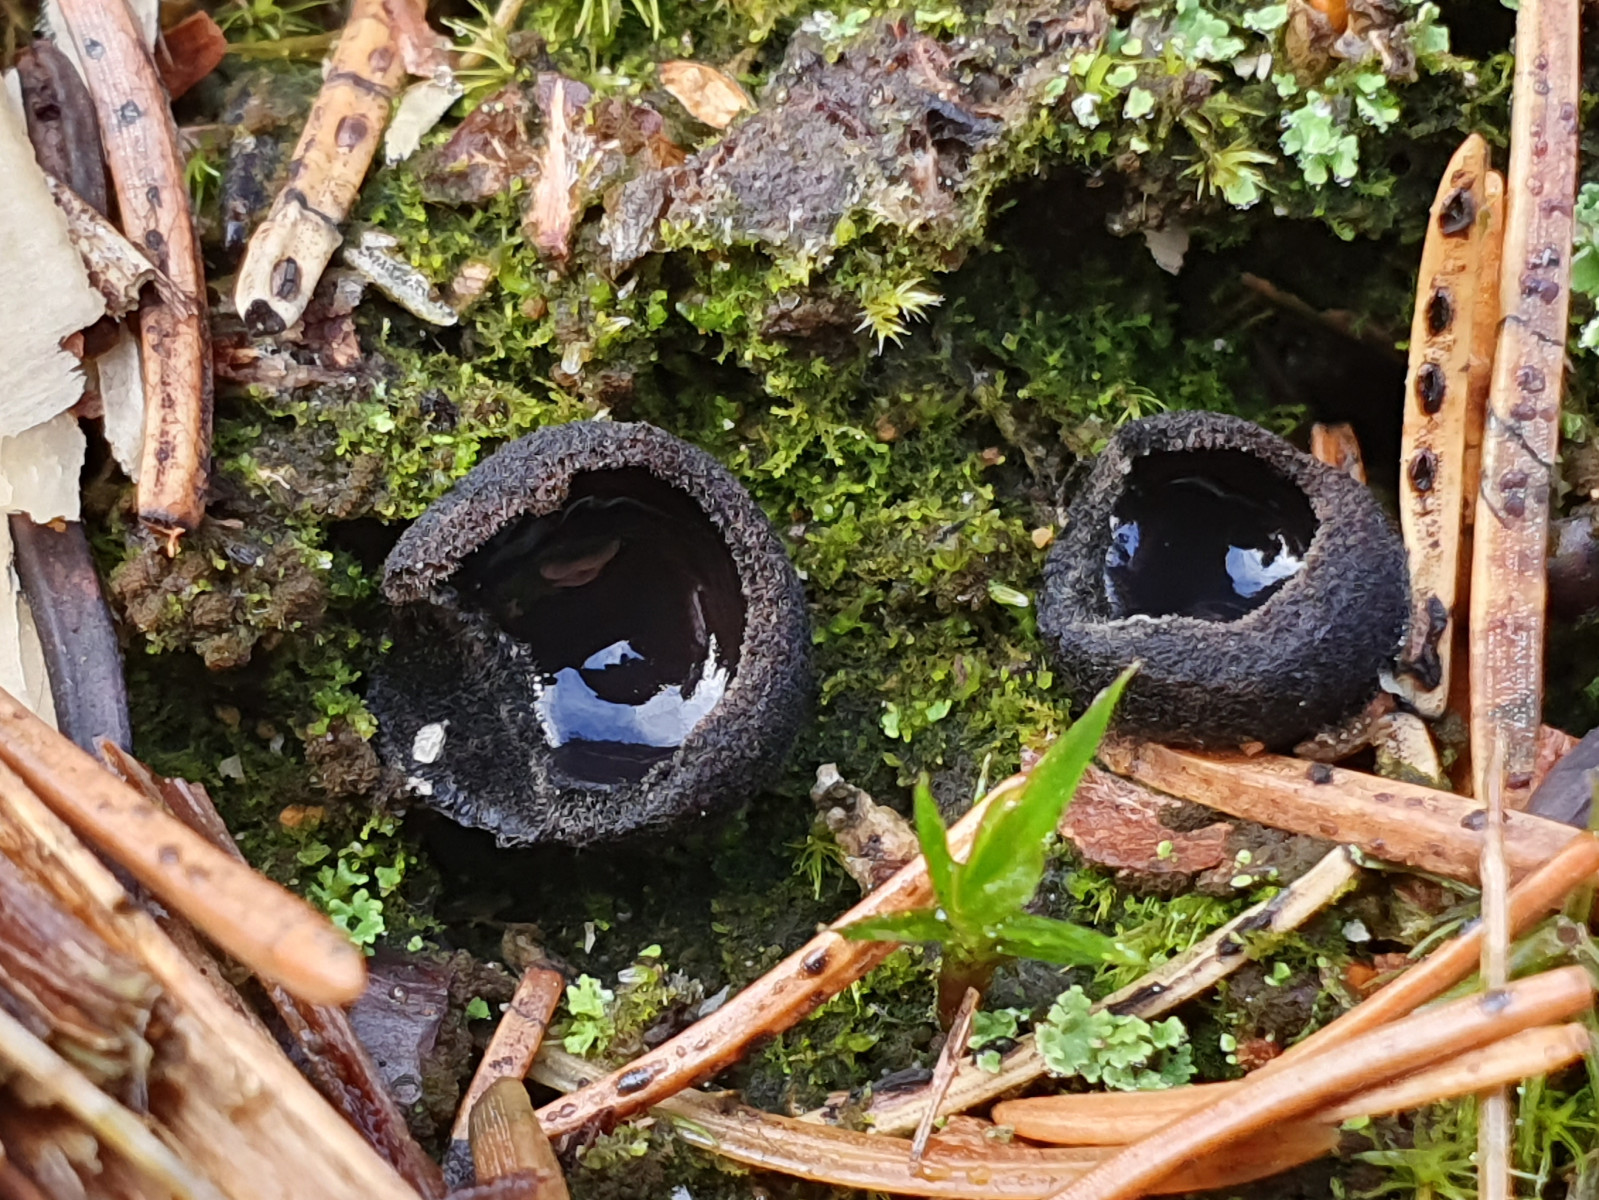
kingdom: Fungi
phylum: Ascomycota
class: Pezizomycetes
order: Pezizales
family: Sarcosomataceae
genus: Pseudoplectania
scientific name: Pseudoplectania nigrella
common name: almindelig sortbæger
